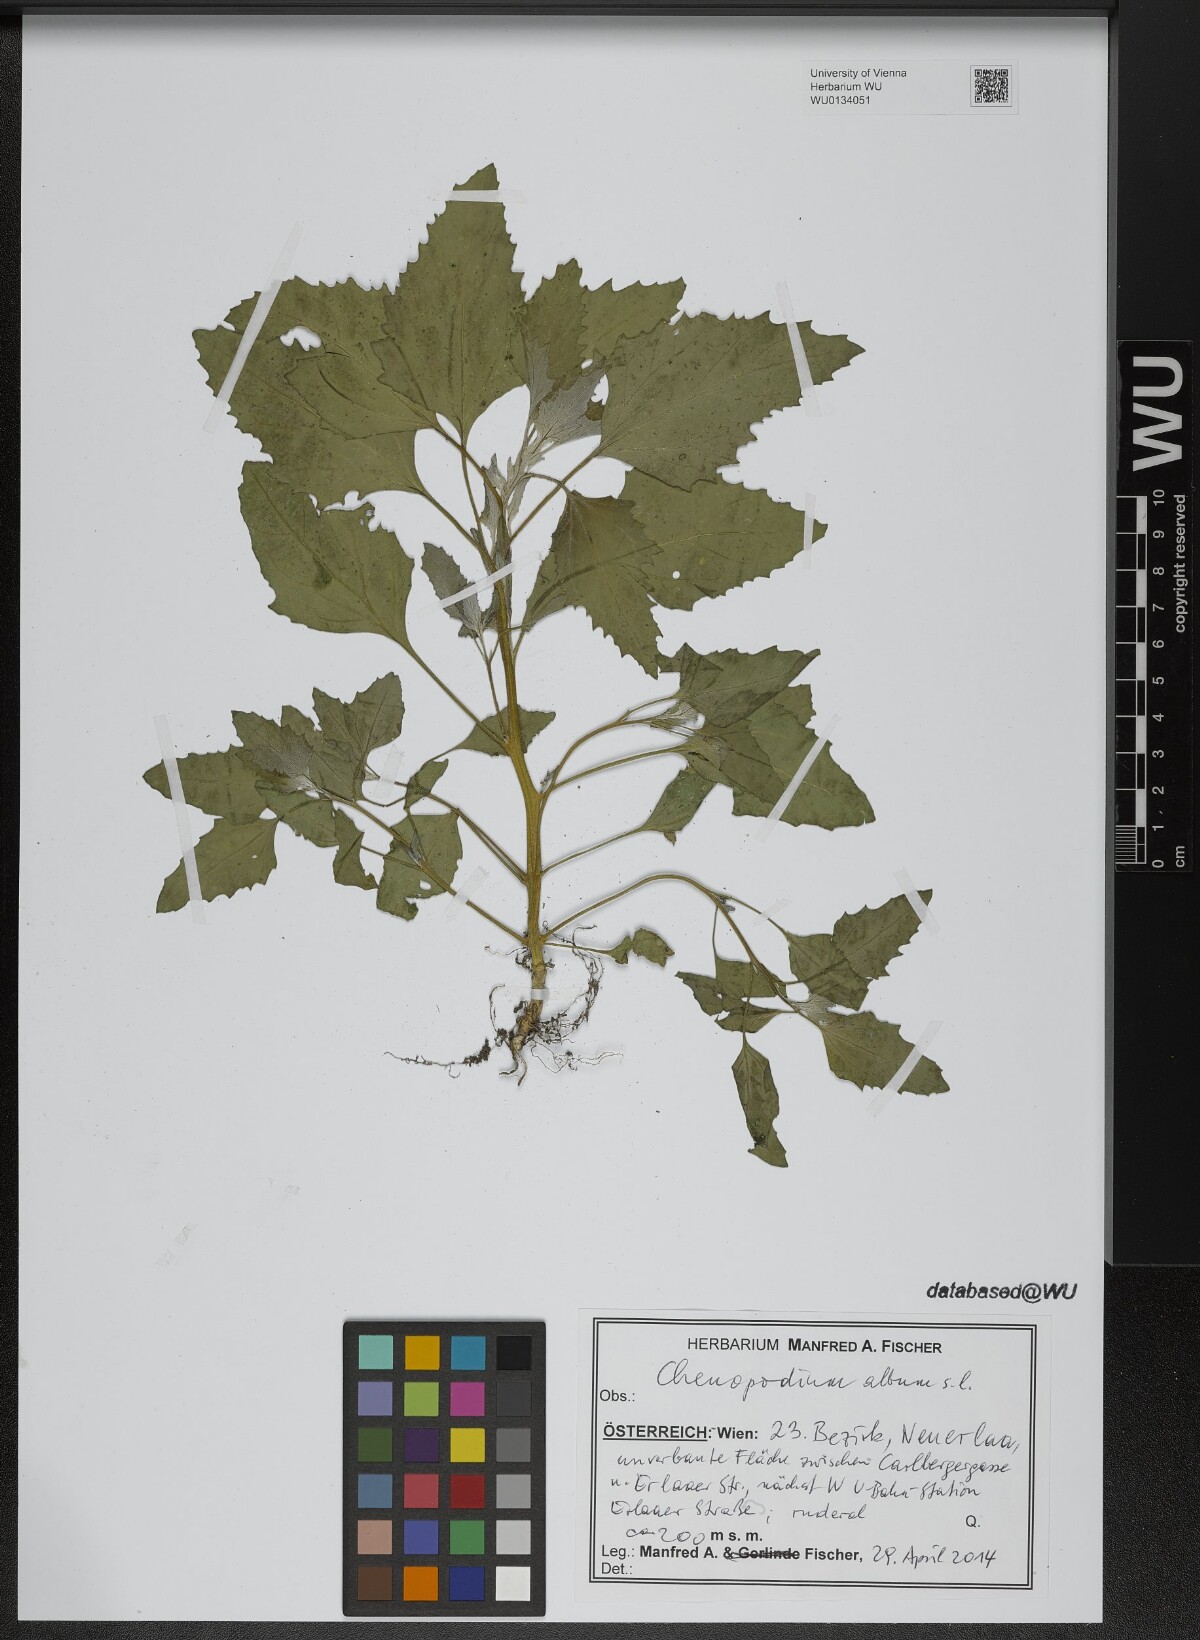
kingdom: Plantae
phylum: Tracheophyta
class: Magnoliopsida
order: Caryophyllales
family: Amaranthaceae
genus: Chenopodium
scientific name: Chenopodium album
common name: Fat-hen
